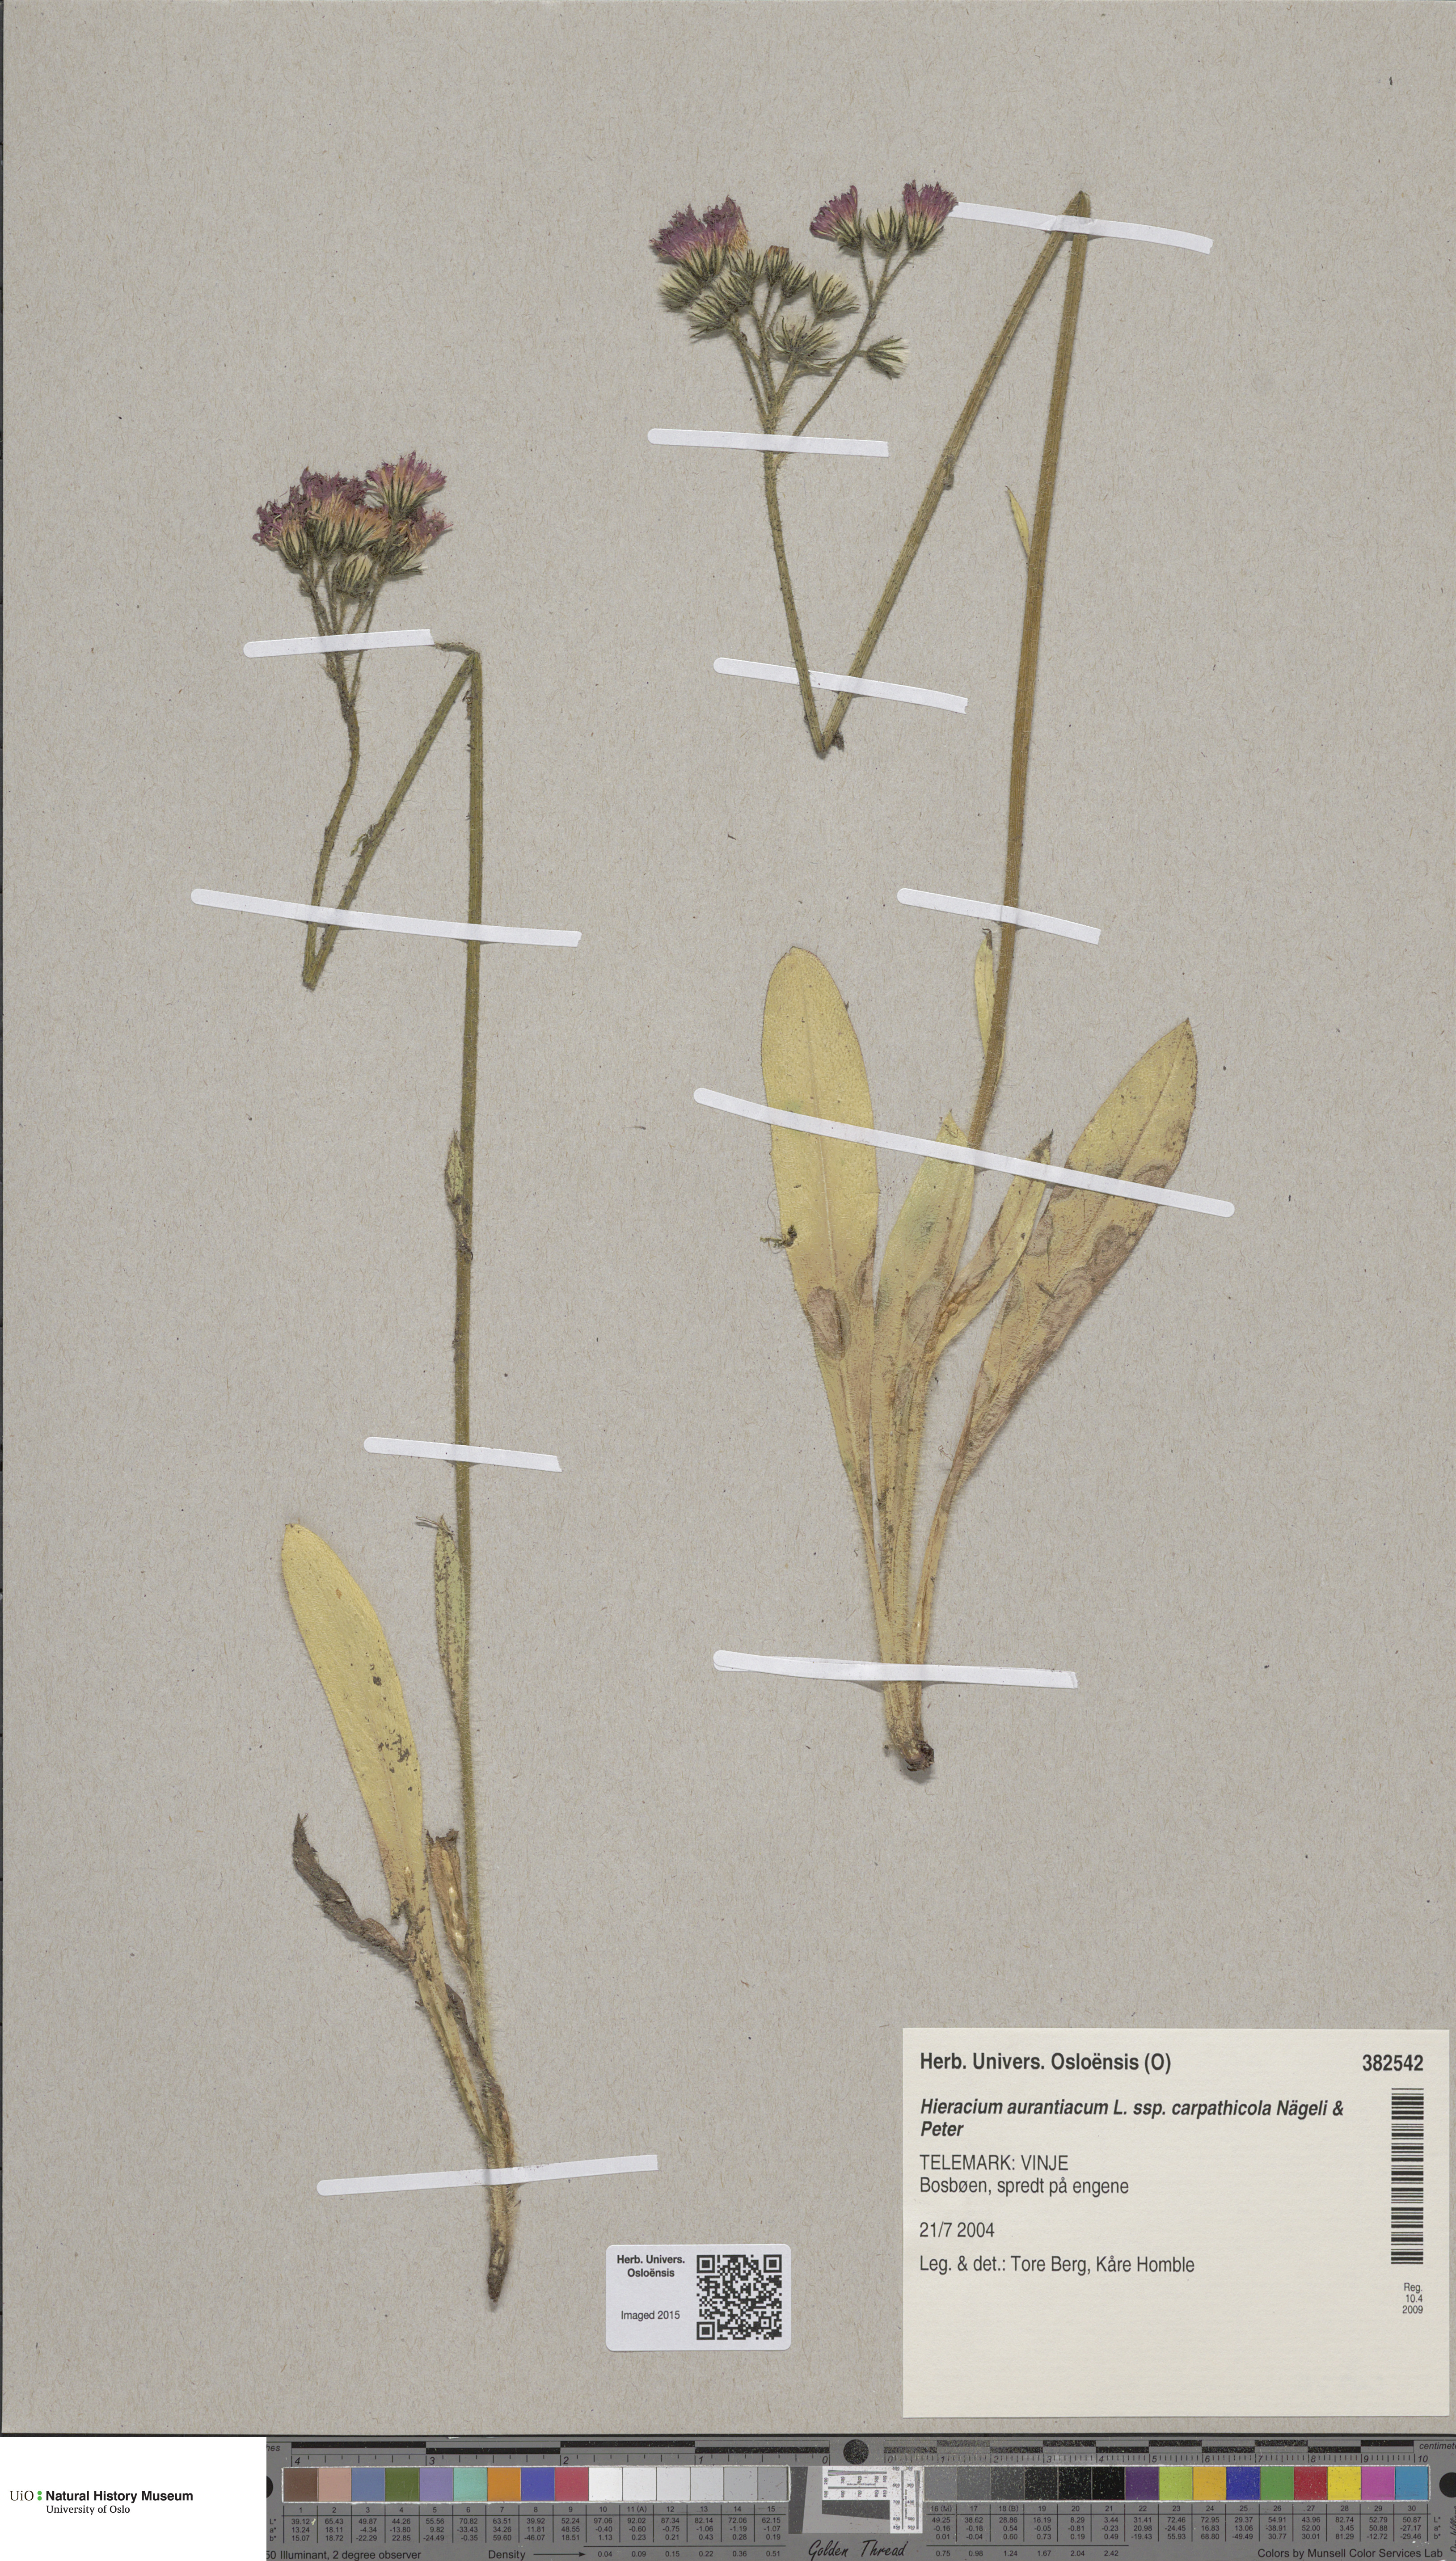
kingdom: Plantae
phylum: Tracheophyta
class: Magnoliopsida
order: Asterales
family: Asteraceae
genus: Pilosella
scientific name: Pilosella aurantiaca
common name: Fox-and-cubs
